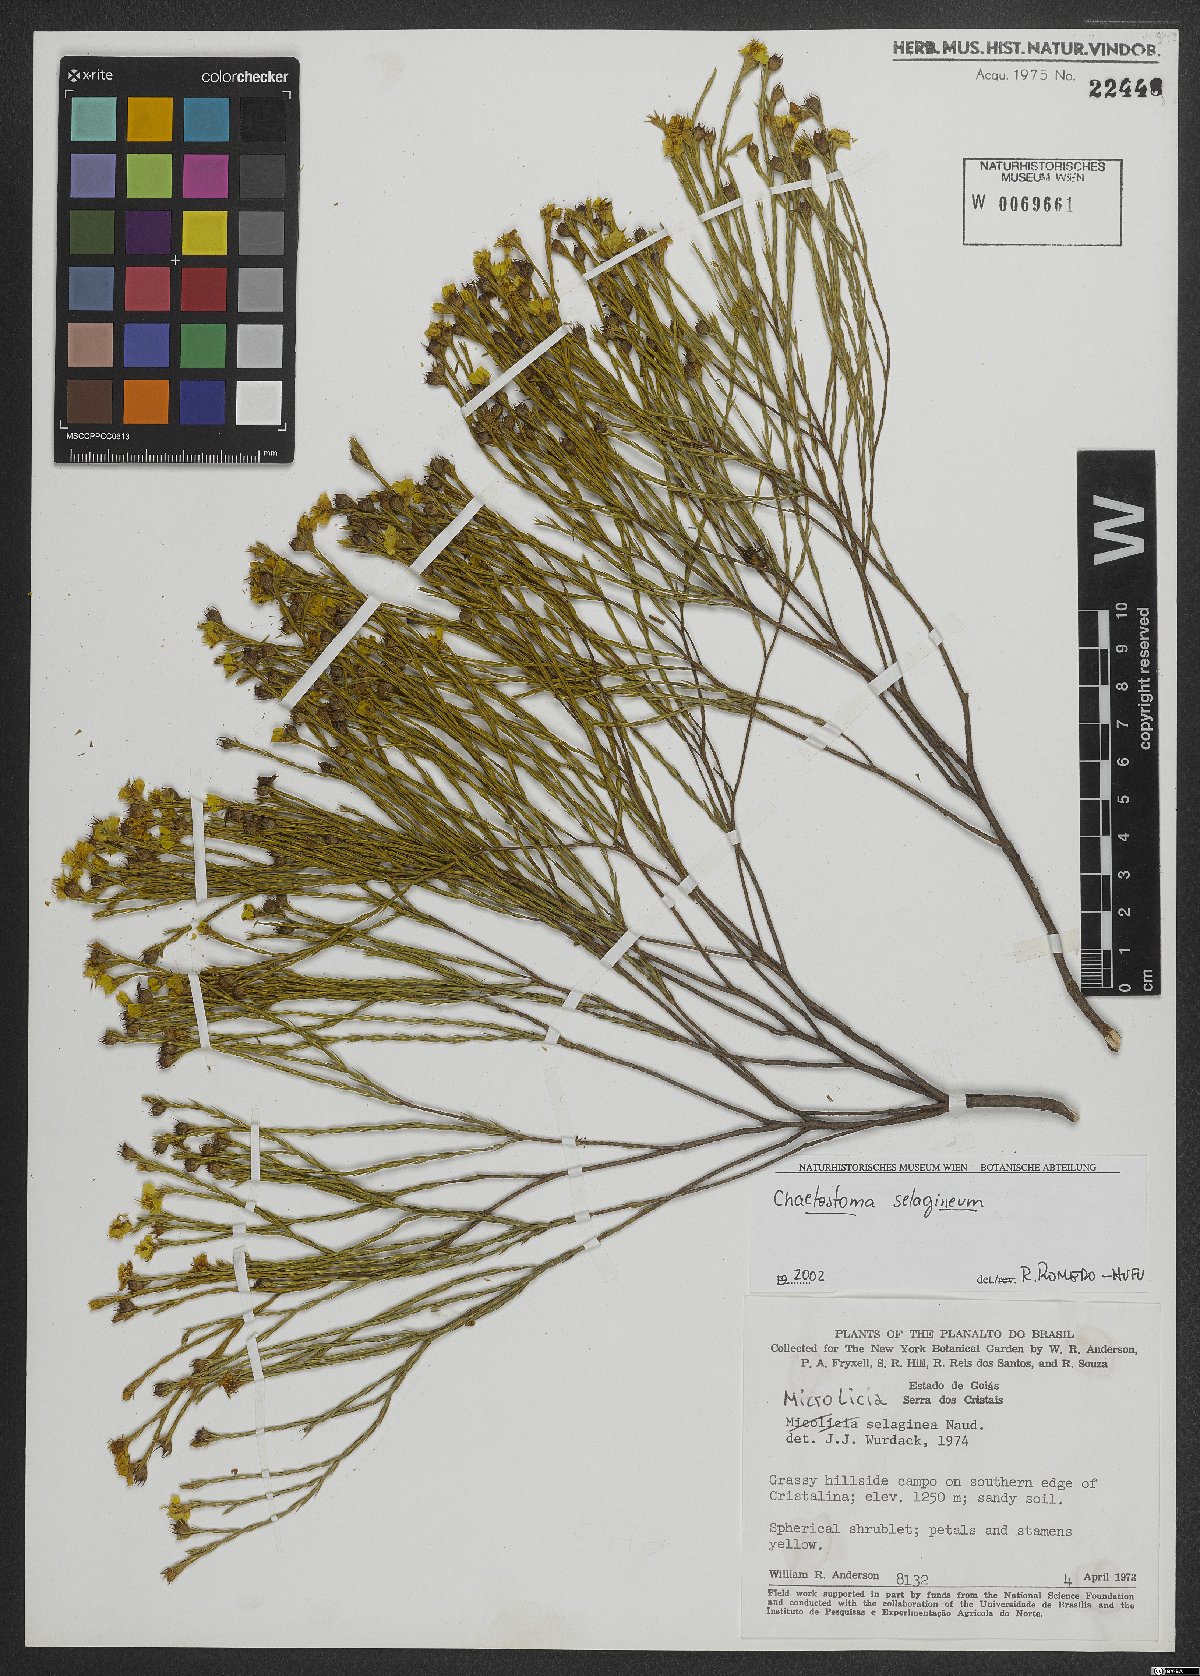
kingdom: Plantae
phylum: Tracheophyta
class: Magnoliopsida
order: Myrtales
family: Melastomataceae
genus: Microlicia
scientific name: Microlicia selaginea
